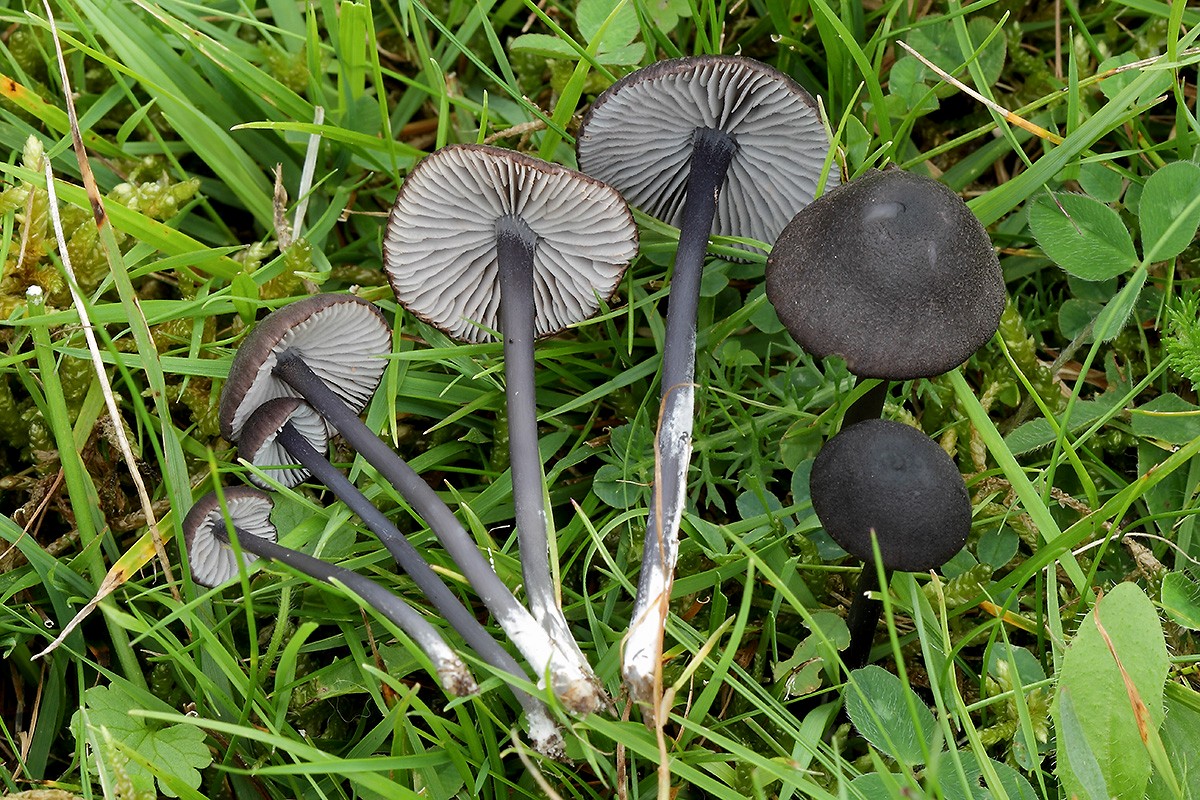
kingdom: Fungi
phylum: Basidiomycota
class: Agaricomycetes
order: Agaricales
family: Entolomataceae
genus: Entoloma
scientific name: Entoloma chalybeum
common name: blåbladet rødblad
